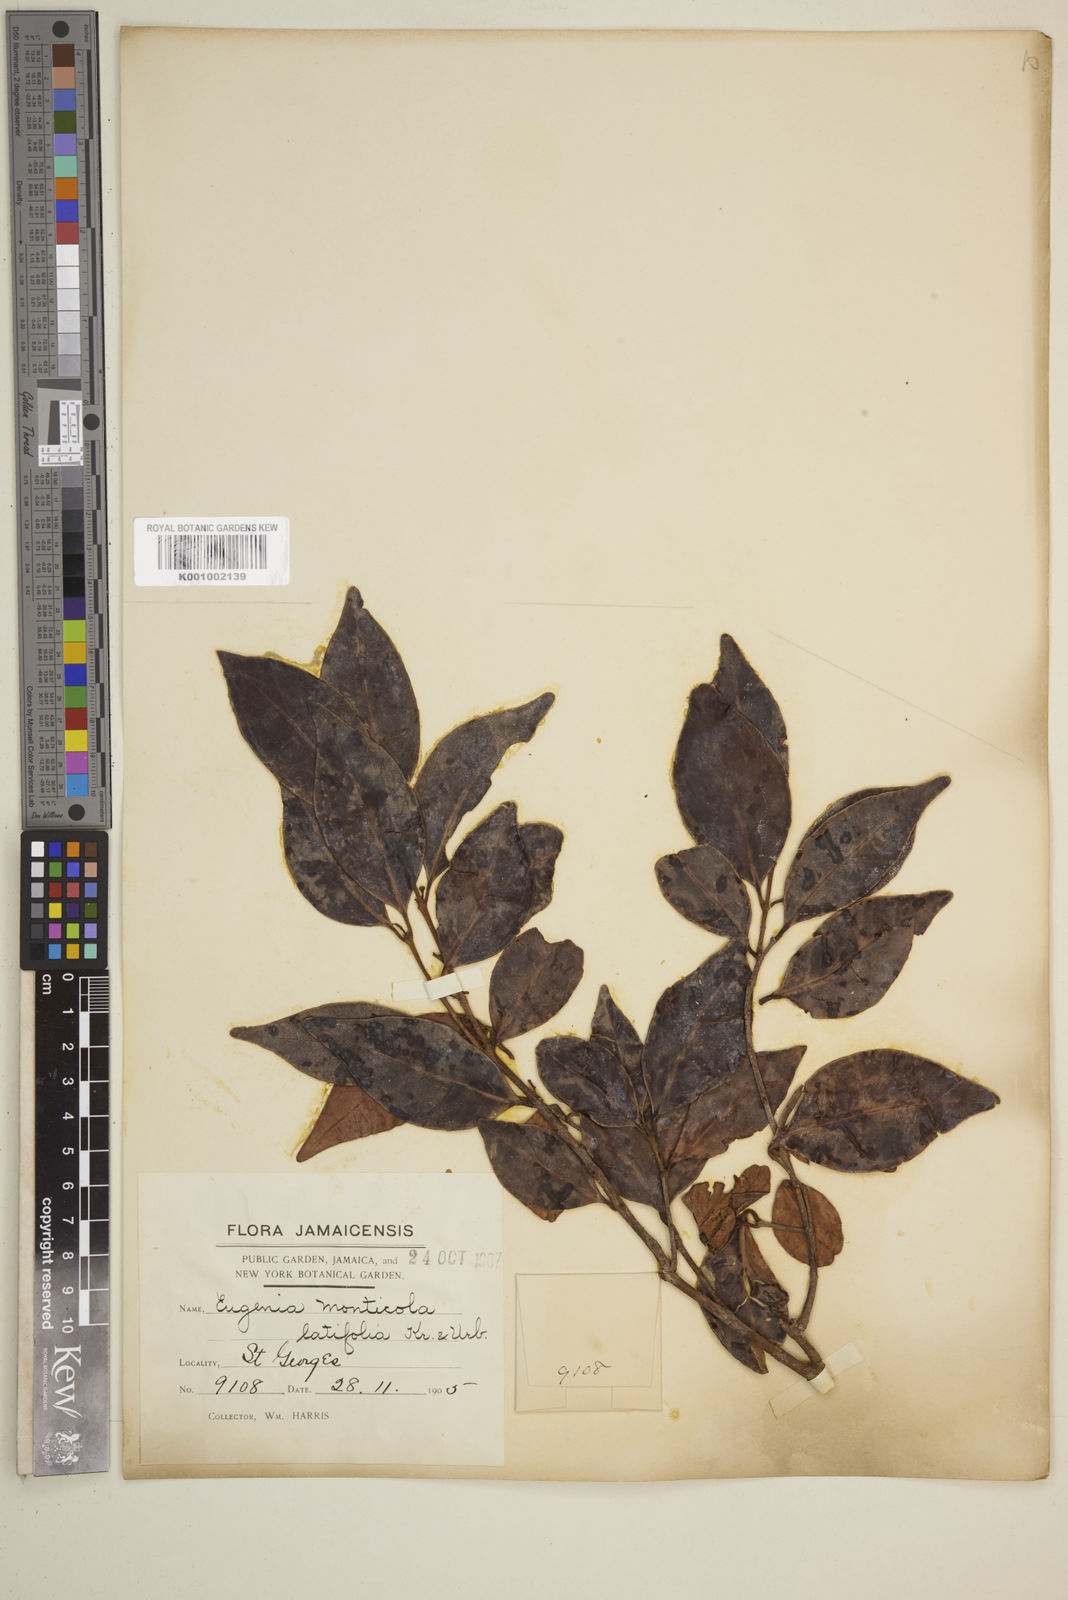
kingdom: Plantae
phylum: Tracheophyta
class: Magnoliopsida
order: Myrtales
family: Myrtaceae
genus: Eugenia
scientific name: Eugenia monticola
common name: Birds berry
